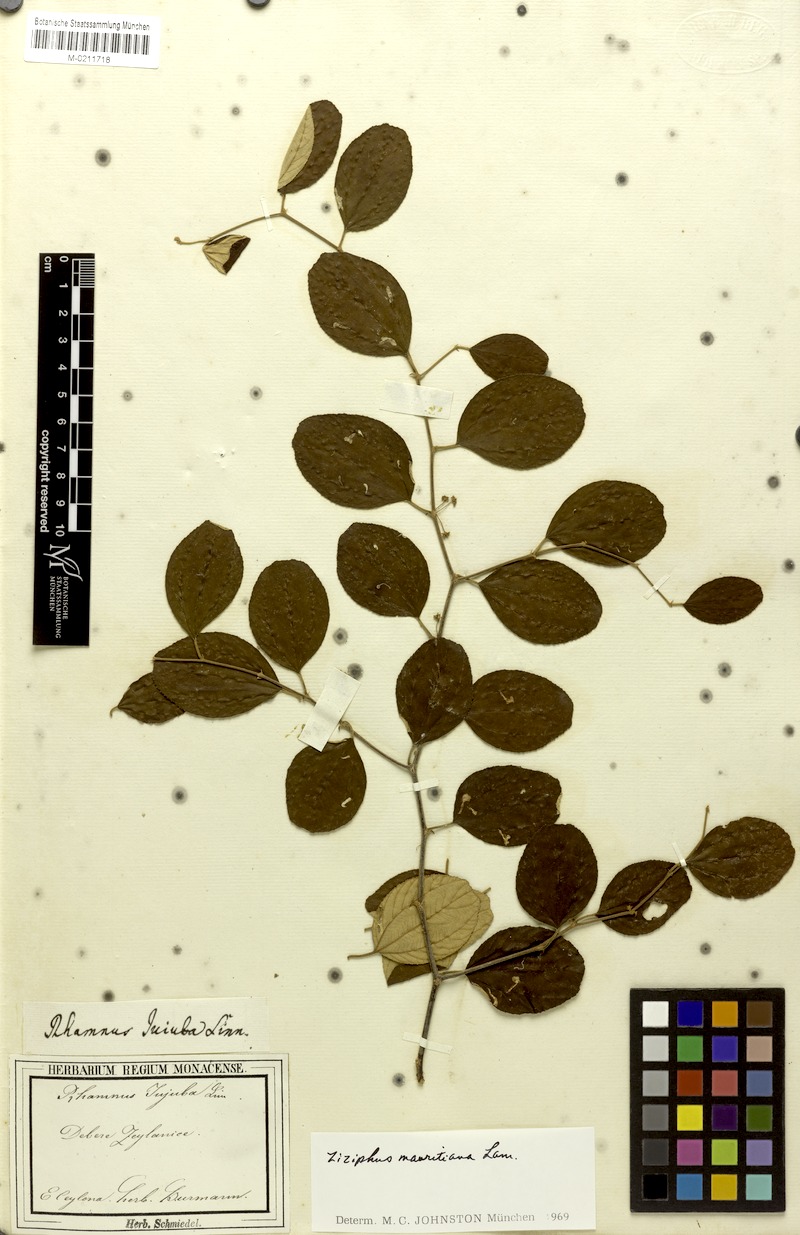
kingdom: Plantae
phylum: Tracheophyta
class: Magnoliopsida
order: Rosales
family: Rhamnaceae
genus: Ziziphus
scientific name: Ziziphus mauritiana
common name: Indian jujube
